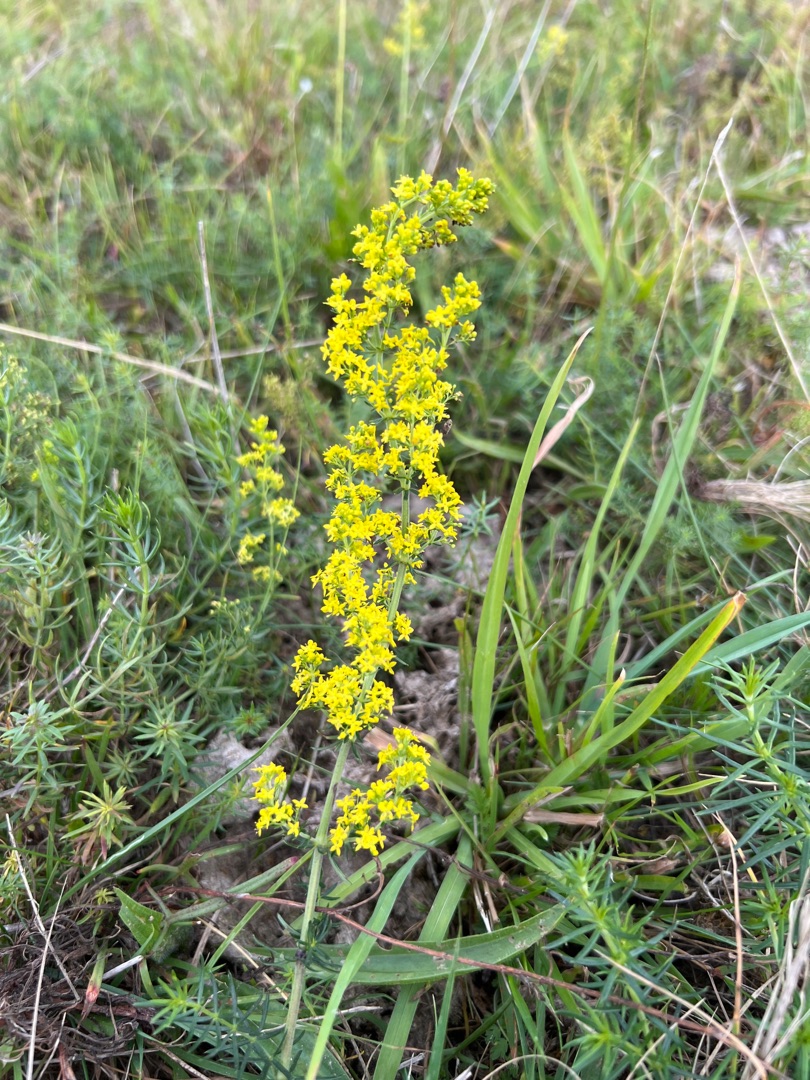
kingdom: Plantae
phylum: Tracheophyta
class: Magnoliopsida
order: Gentianales
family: Rubiaceae
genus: Galium
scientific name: Galium verum
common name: Gul snerre
